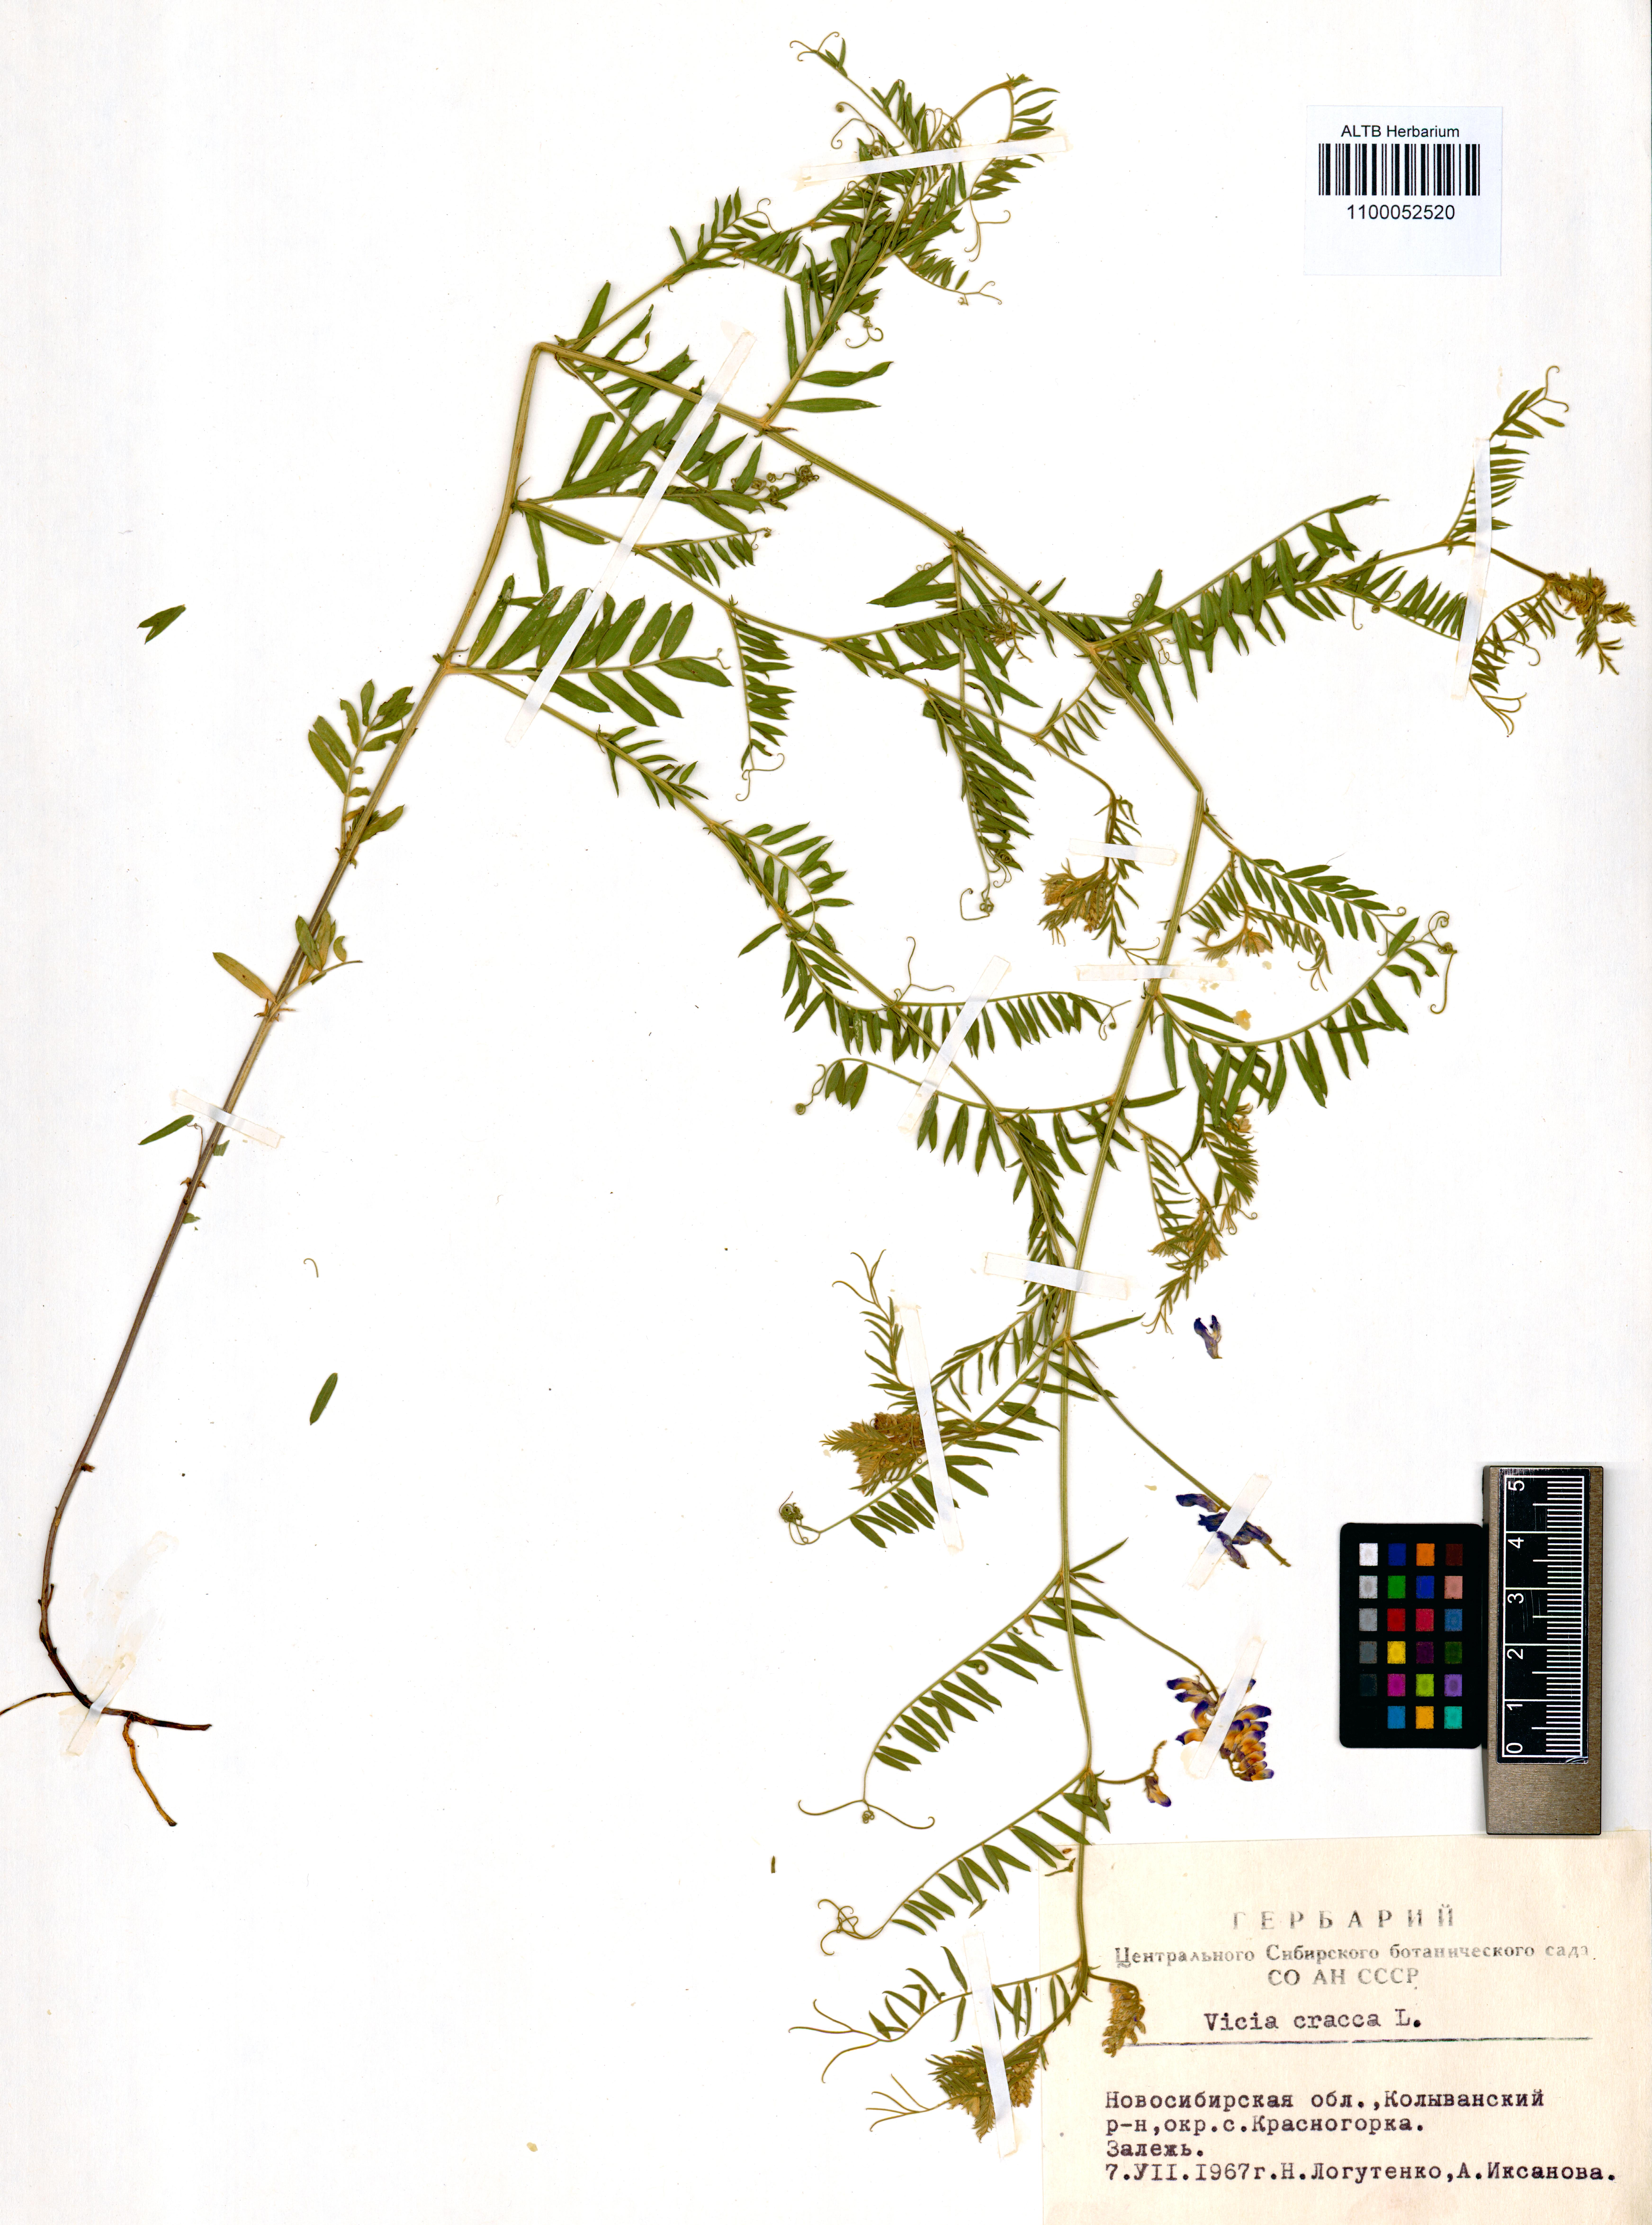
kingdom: Plantae
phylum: Tracheophyta
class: Magnoliopsida
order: Fabales
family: Fabaceae
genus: Vicia
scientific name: Vicia cracca
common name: Bird vetch
